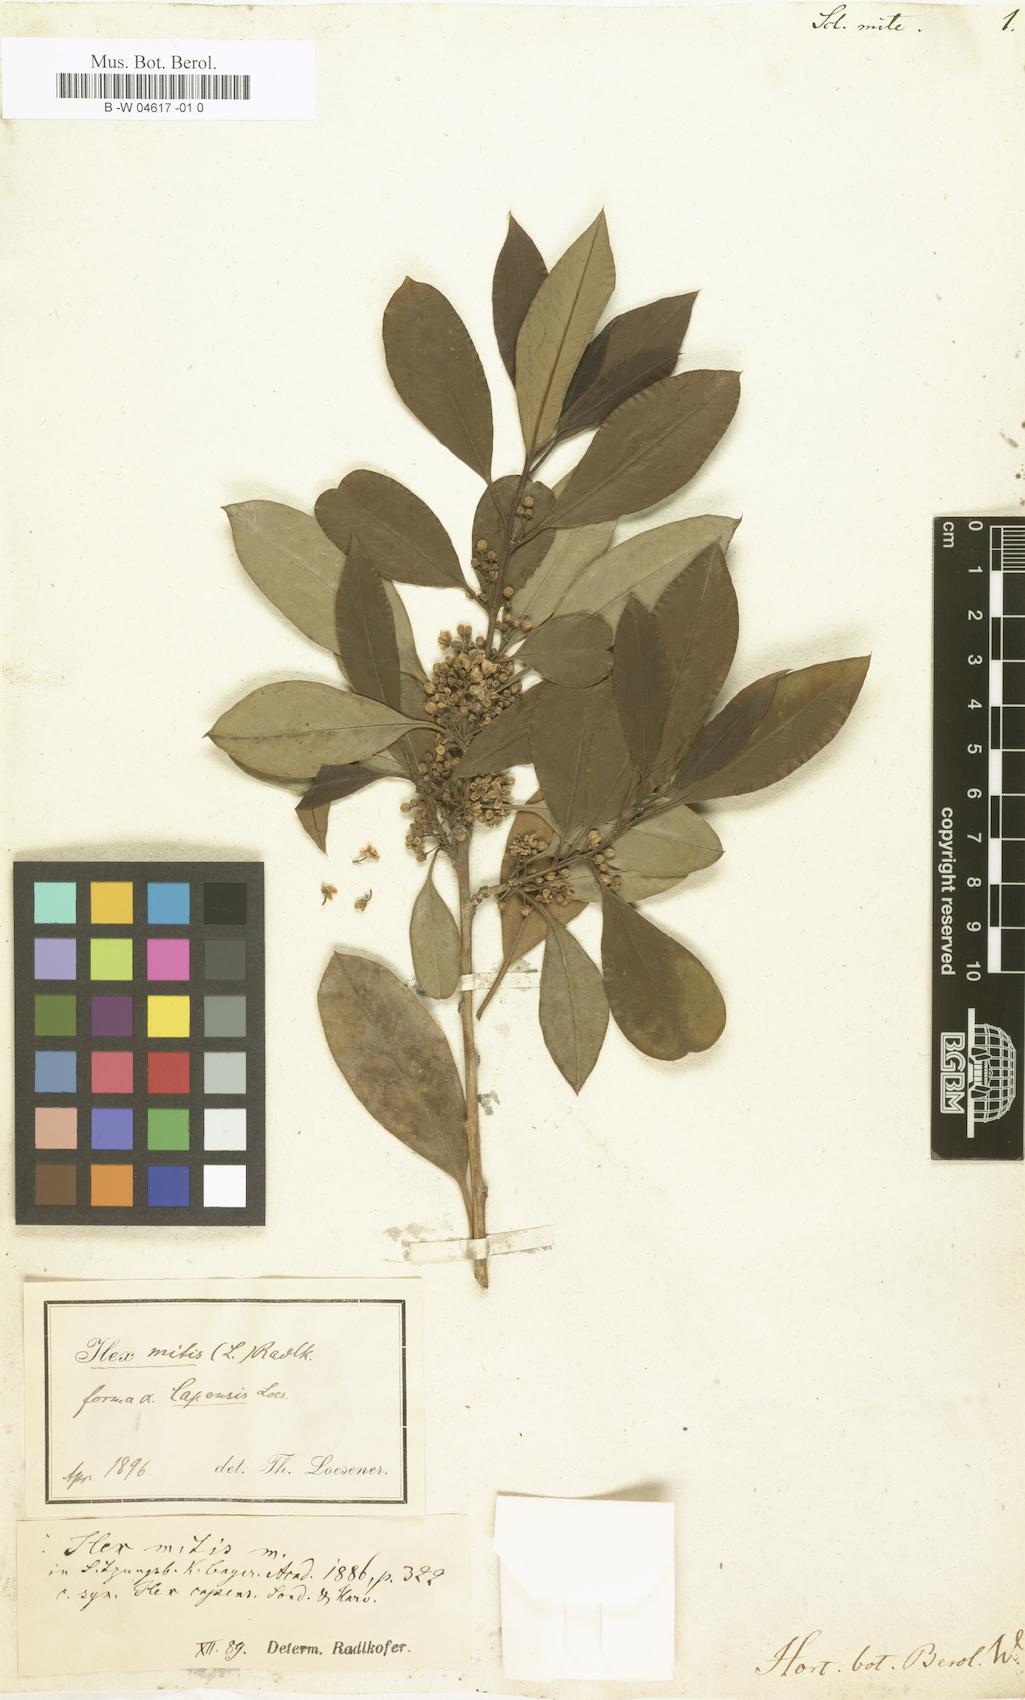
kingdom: Plantae
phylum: Tracheophyta
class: Magnoliopsida
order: Ericales
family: Sapotaceae
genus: Scleroxylon
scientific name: Scleroxylon
